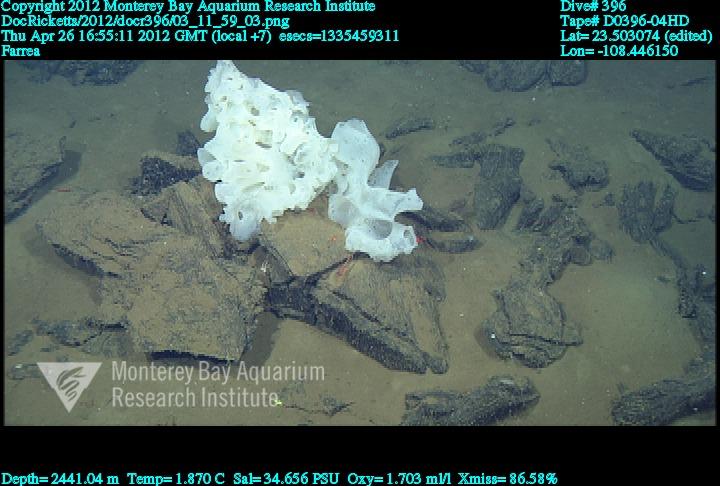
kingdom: Animalia
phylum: Porifera
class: Hexactinellida
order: Sceptrulophora
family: Farreidae
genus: Farrea
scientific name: Farrea
